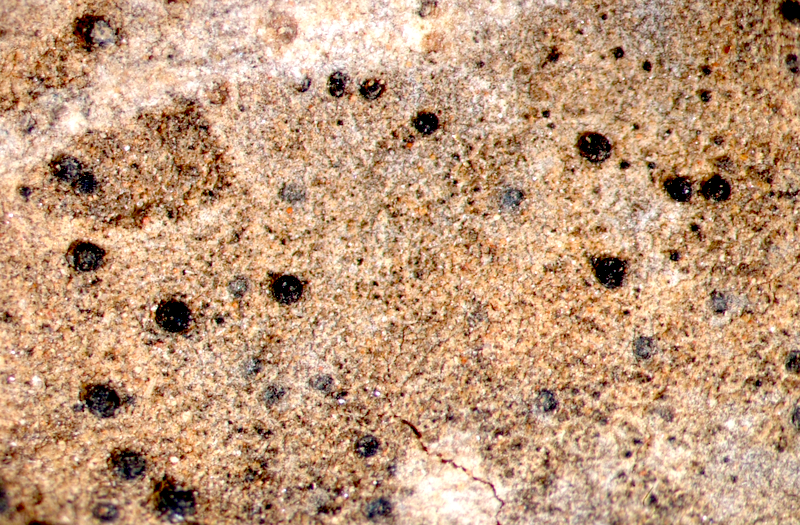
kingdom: Fungi
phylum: Ascomycota
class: Lecanoromycetes
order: Teloschistales
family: Teloschistaceae
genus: Xanthoria
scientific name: Xanthoria parietina
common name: Common orange lichen
